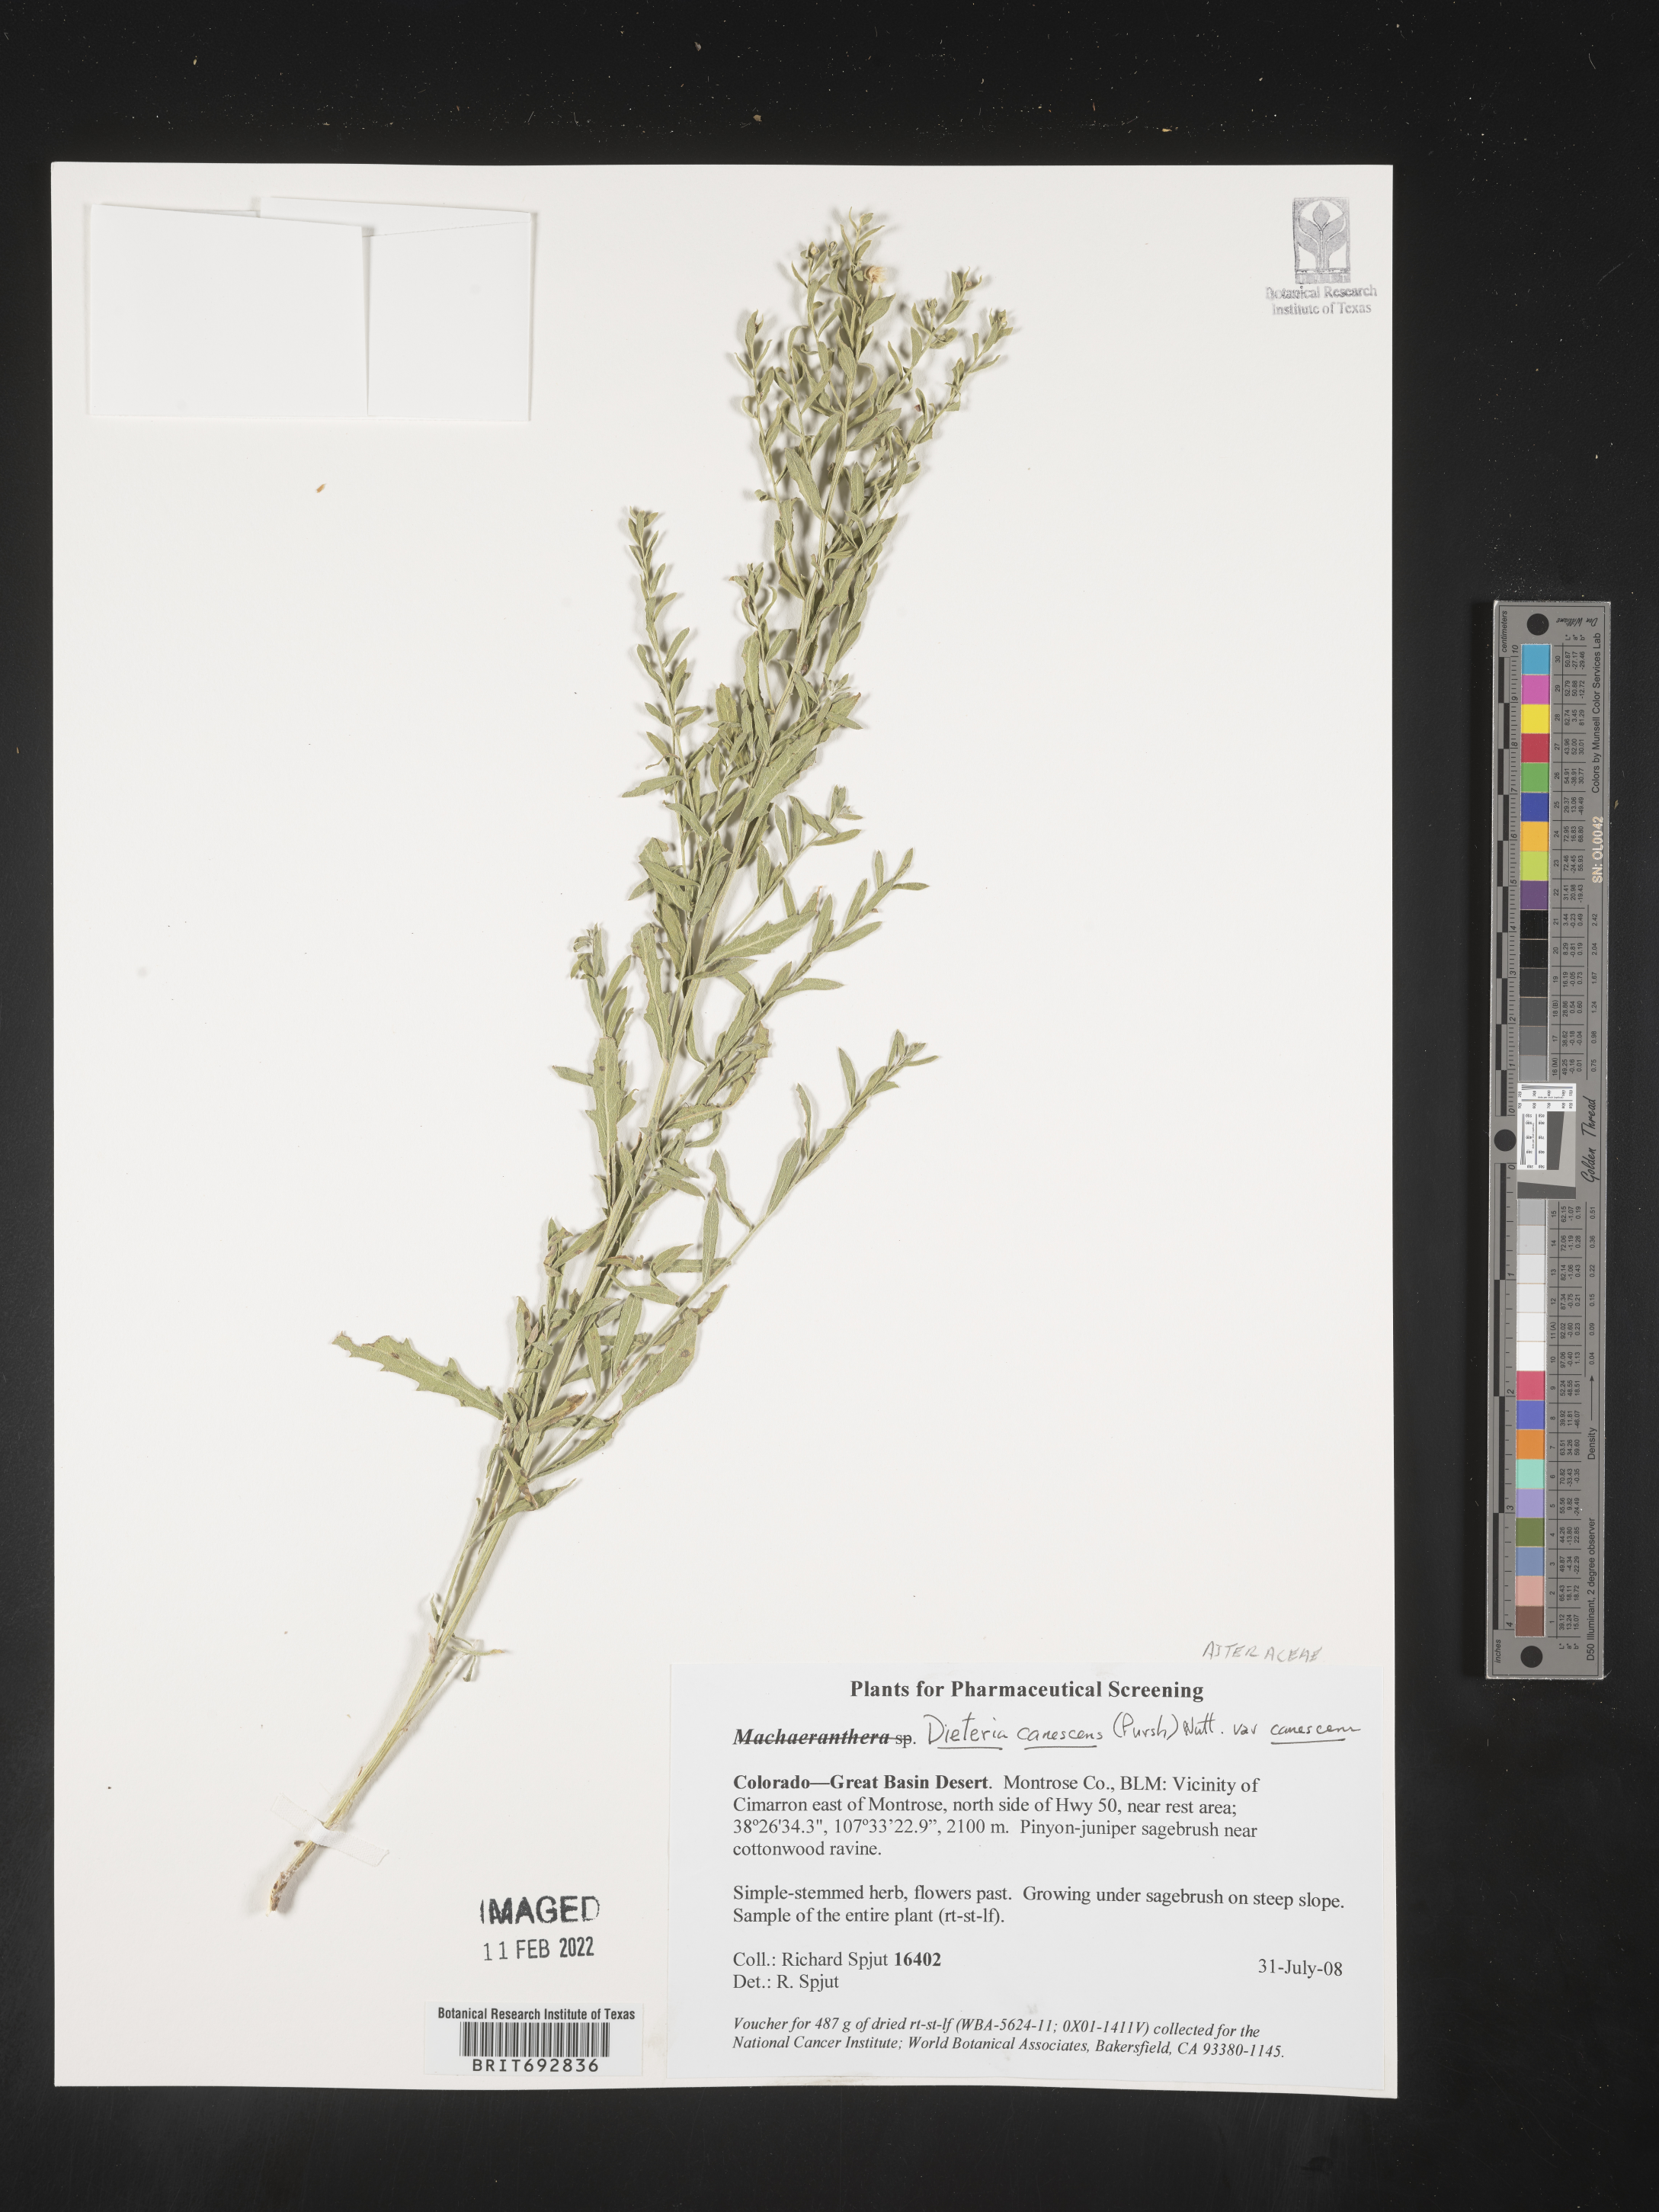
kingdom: Plantae
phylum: Tracheophyta
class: Magnoliopsida
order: Asterales
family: Asteraceae
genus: Dieteria
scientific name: Dieteria
